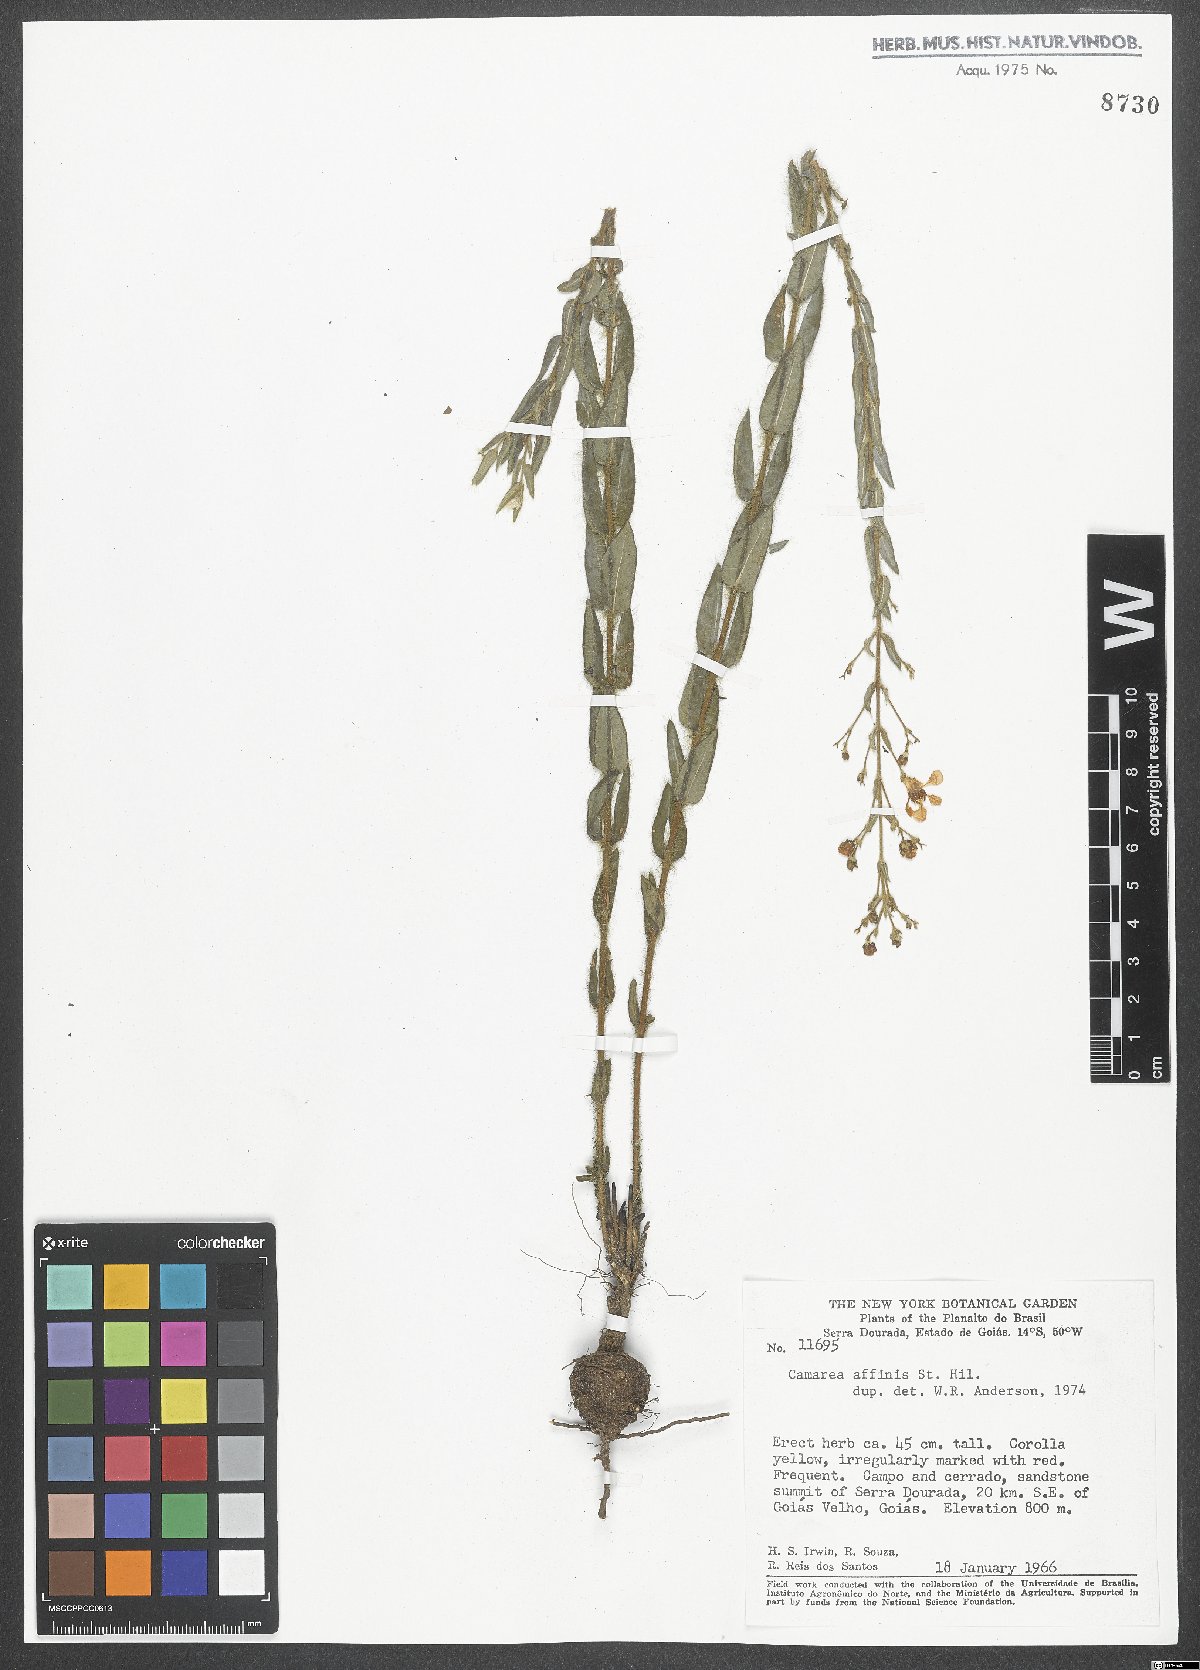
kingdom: Plantae
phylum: Tracheophyta
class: Magnoliopsida
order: Malpighiales
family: Malpighiaceae
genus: Camarea
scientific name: Camarea affinis
